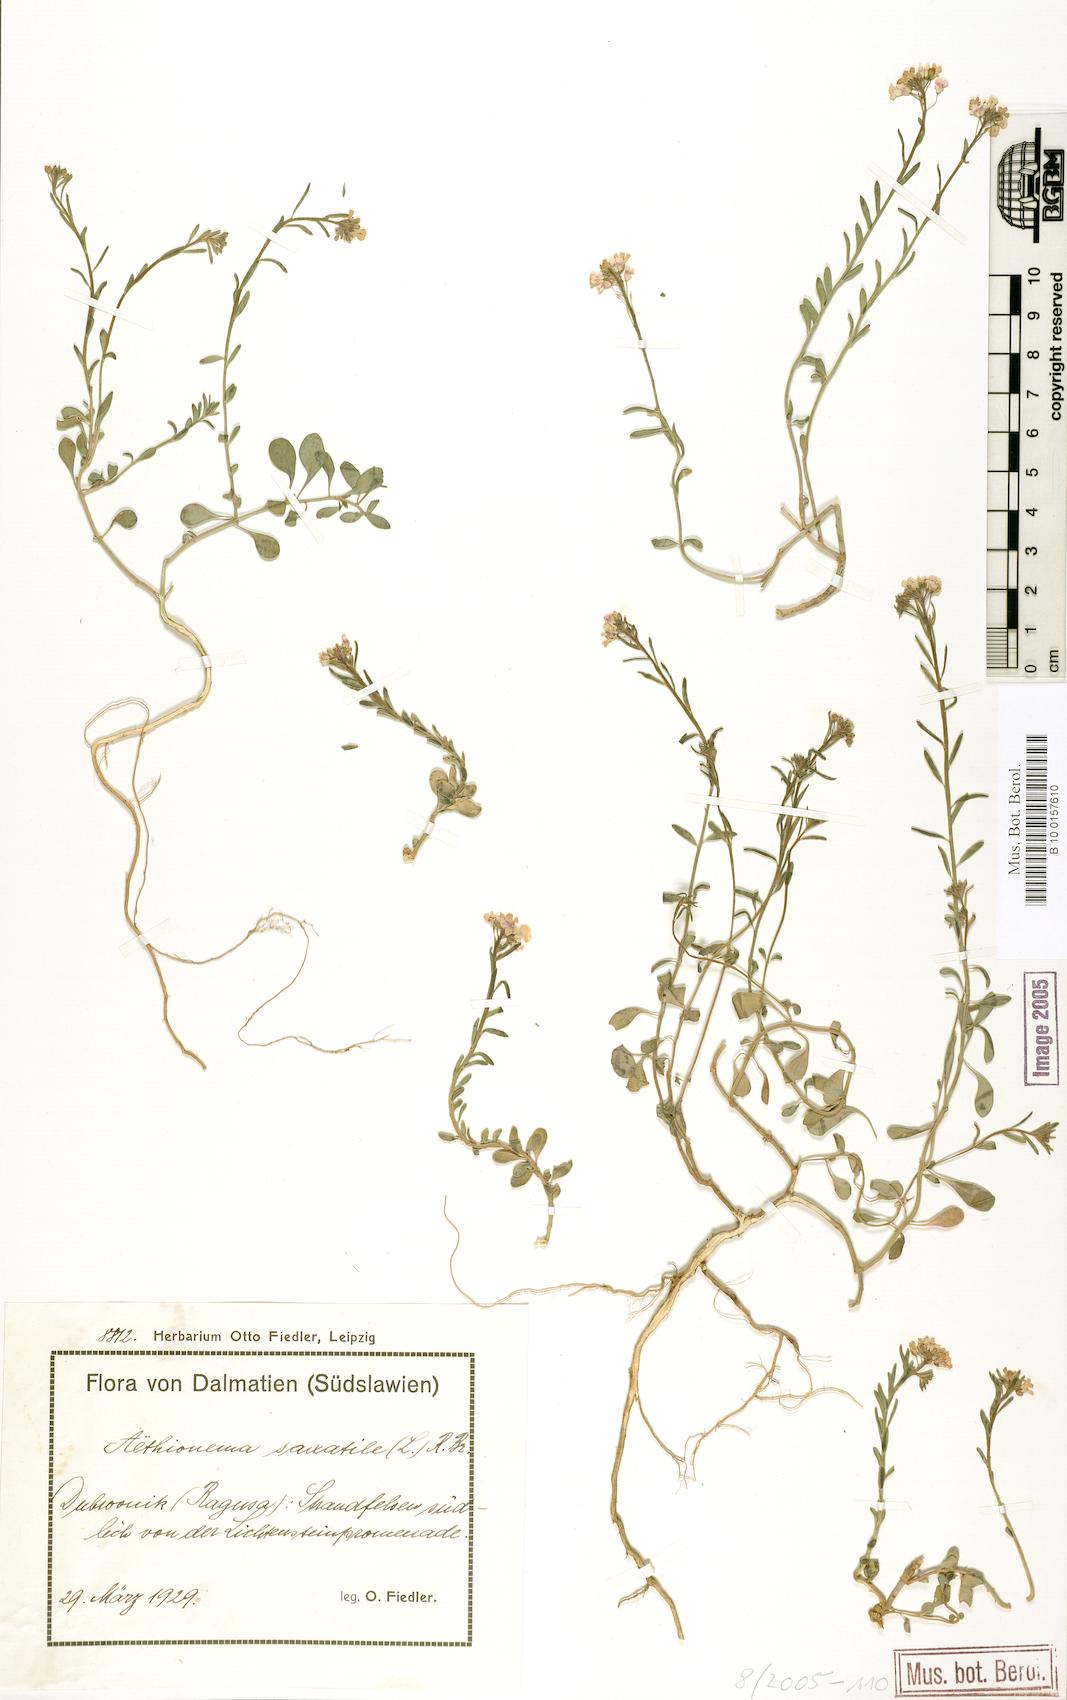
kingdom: Plantae
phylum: Tracheophyta
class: Magnoliopsida
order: Brassicales
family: Brassicaceae
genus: Aethionema
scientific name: Aethionema saxatile
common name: Burnt candytuft
